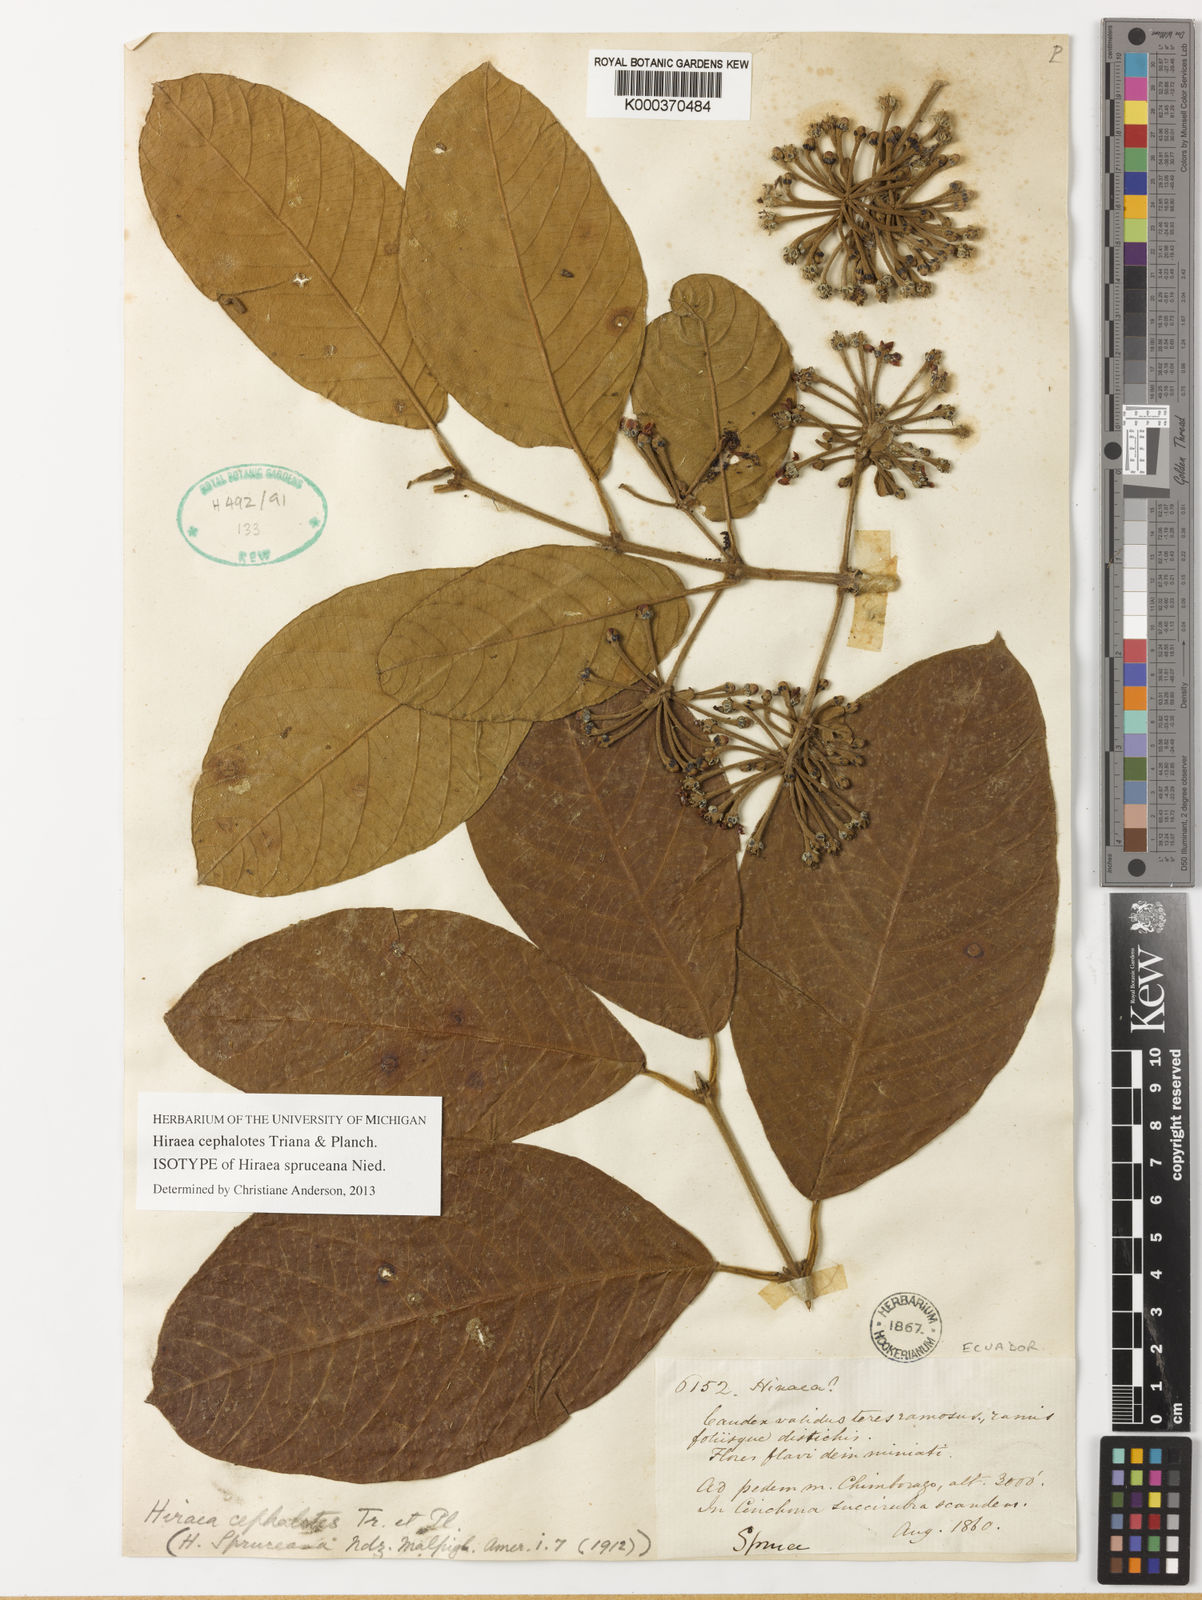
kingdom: Plantae
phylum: Tracheophyta
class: Magnoliopsida
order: Malpighiales
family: Malpighiaceae
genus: Hiraea
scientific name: Hiraea cephalotes
